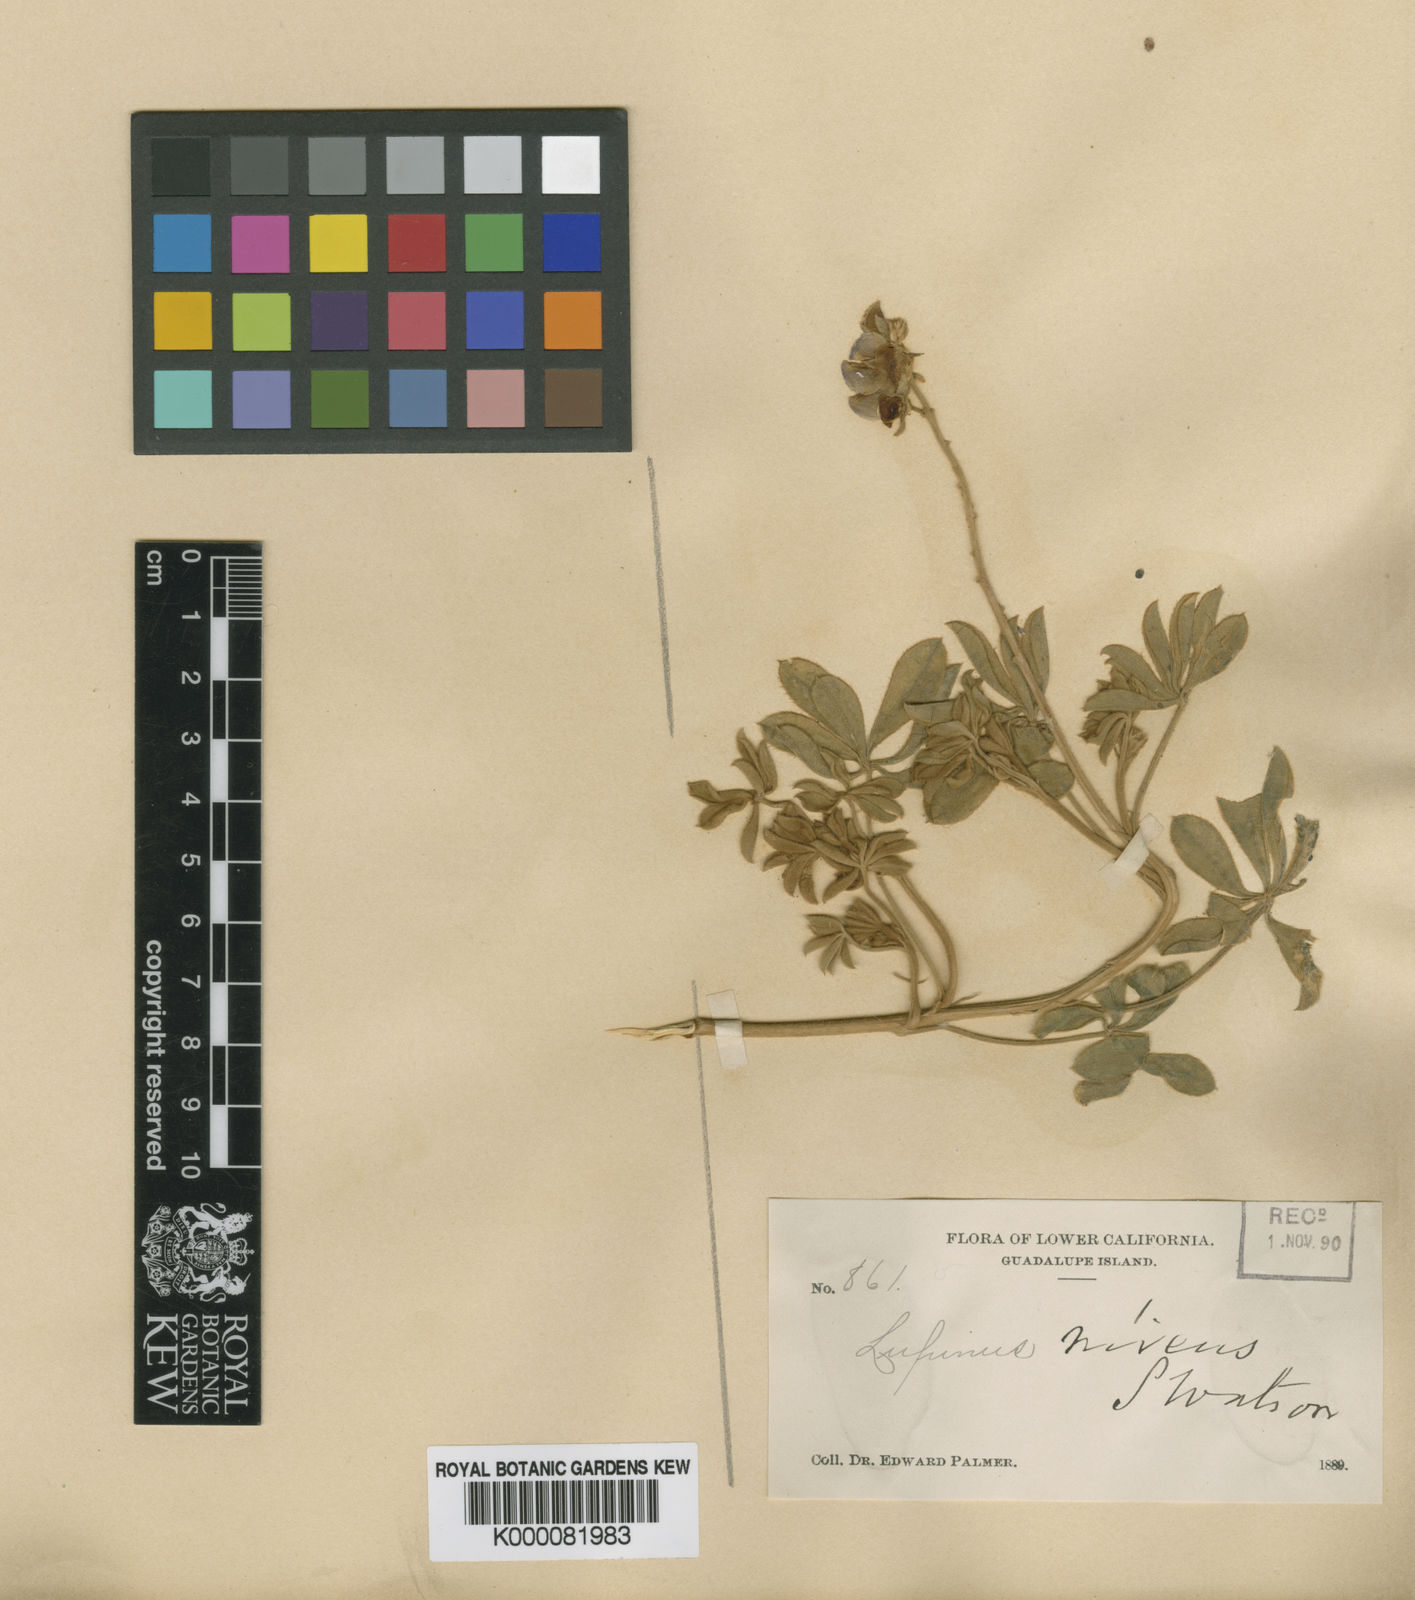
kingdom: Plantae
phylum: Tracheophyta
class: Magnoliopsida
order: Fabales
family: Fabaceae
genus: Lupinus
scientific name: Lupinus niveus
